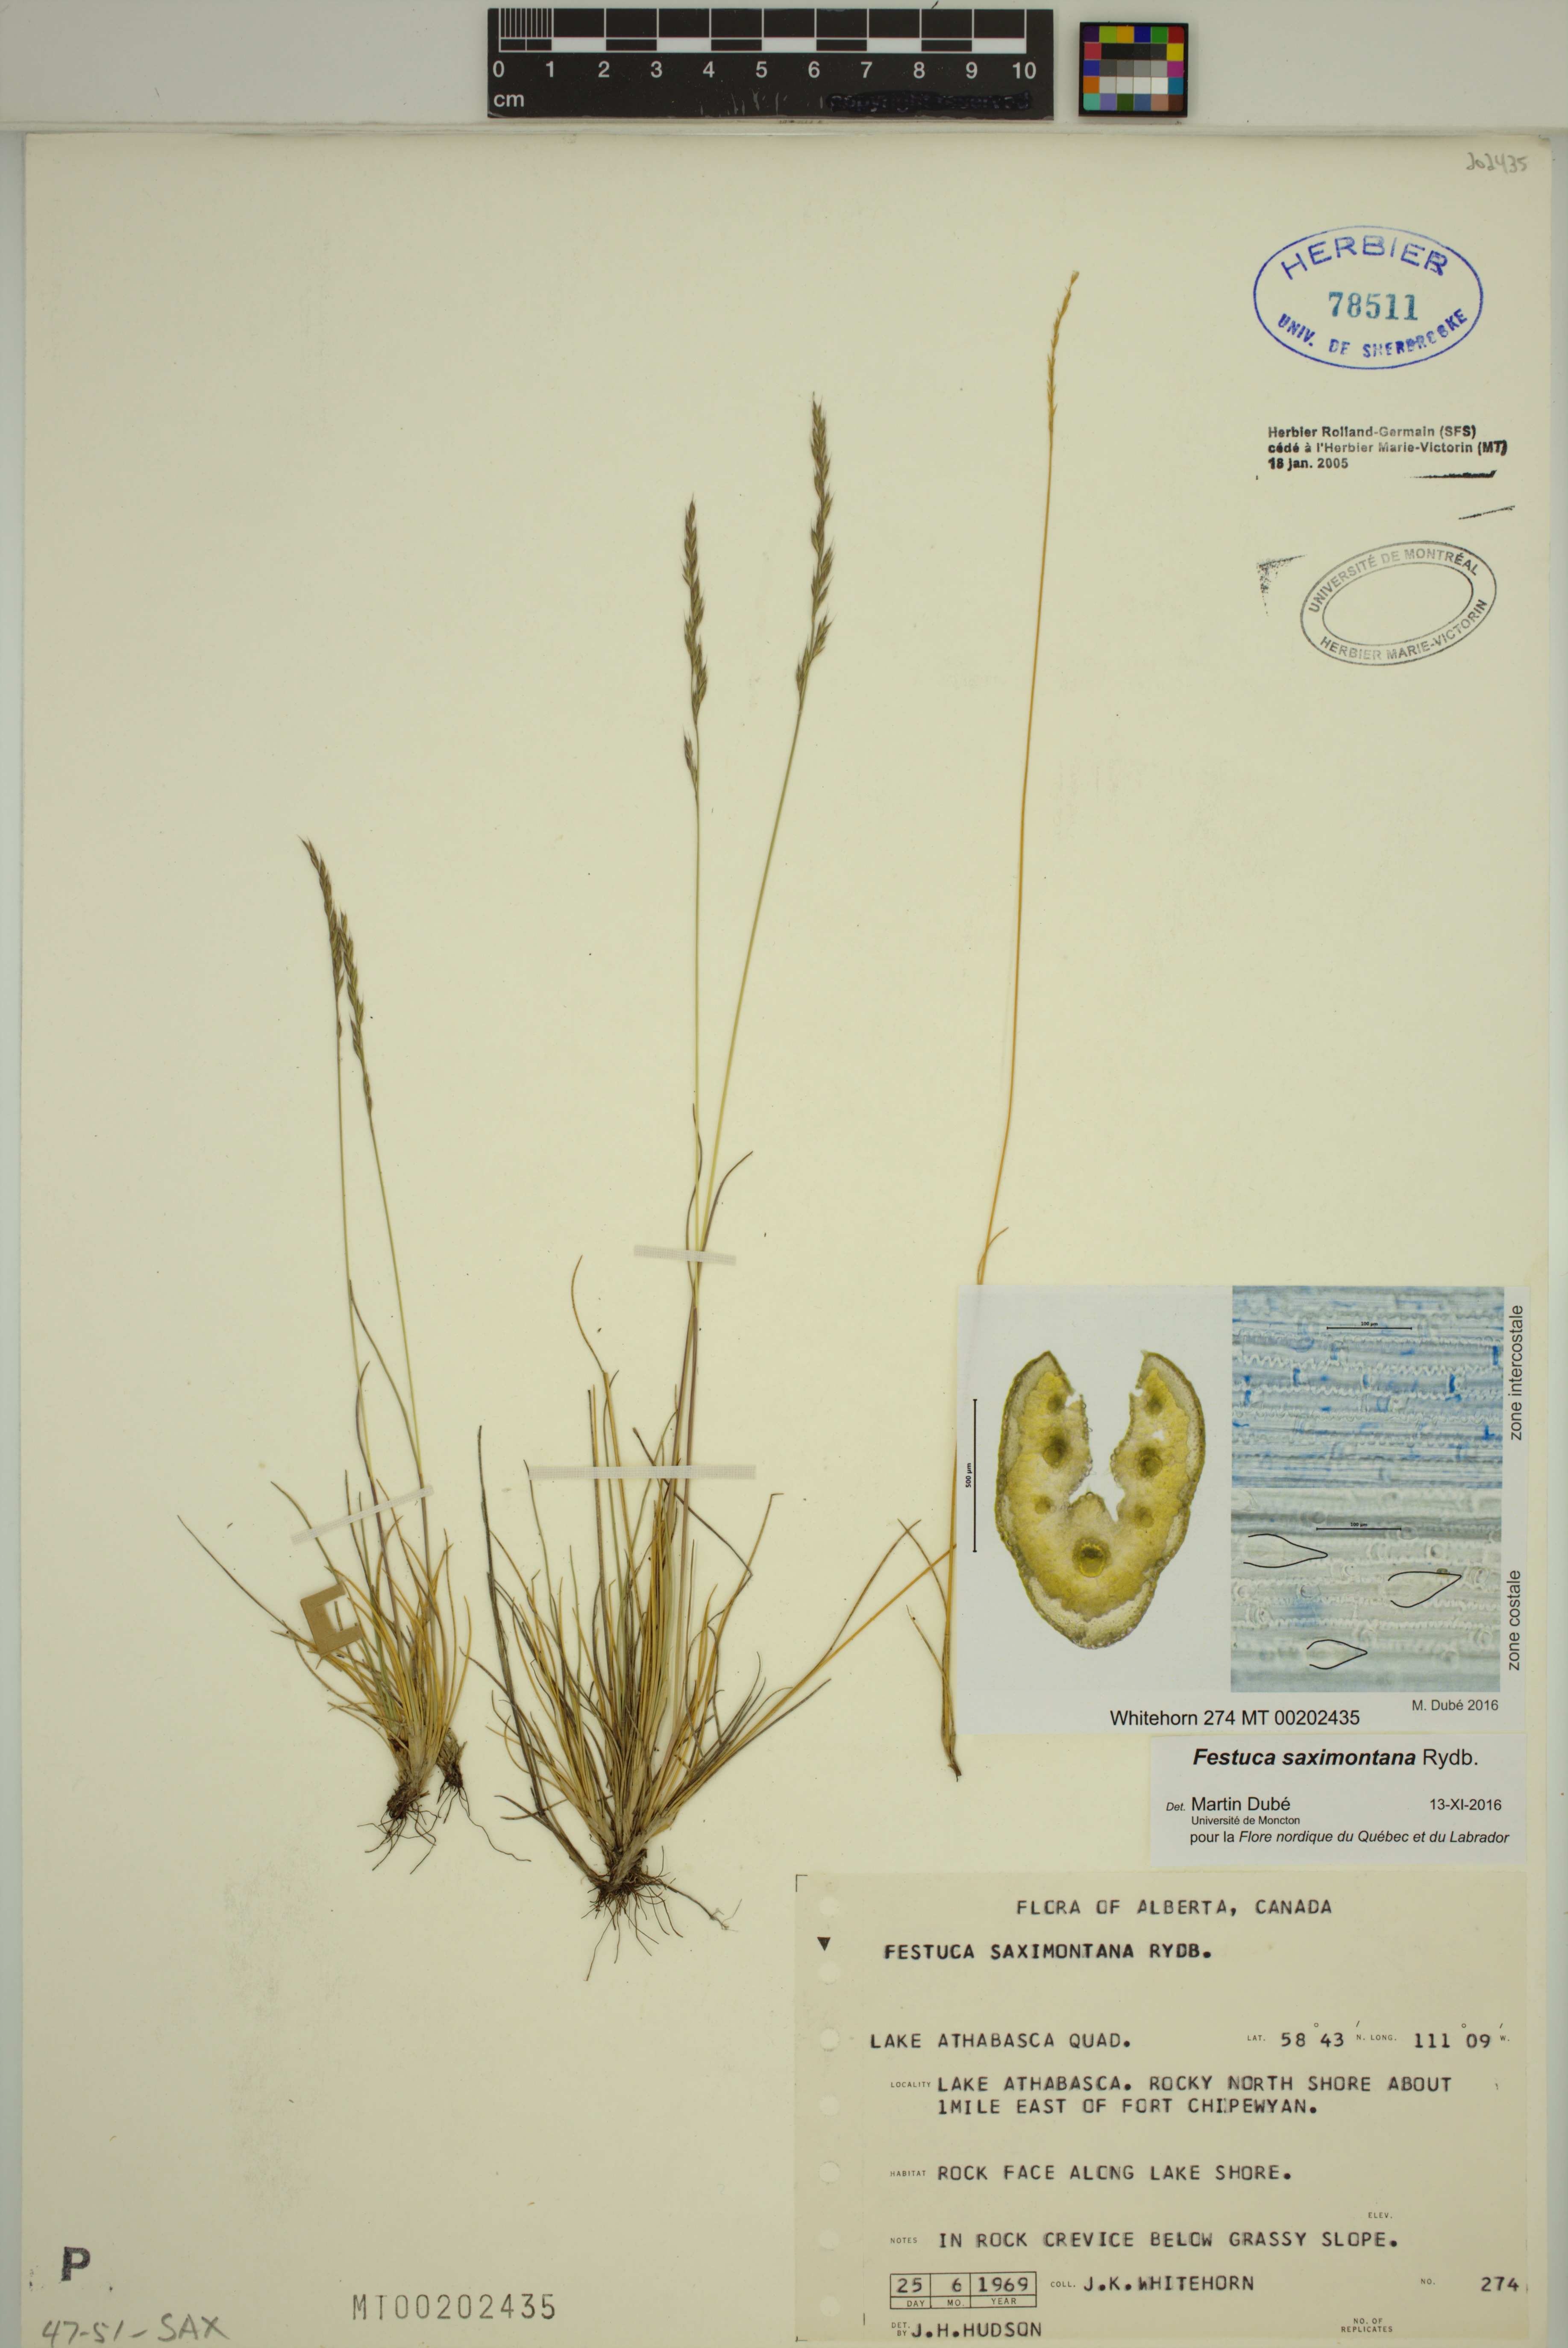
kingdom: Plantae
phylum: Tracheophyta
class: Liliopsida
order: Poales
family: Poaceae
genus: Festuca
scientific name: Festuca saximontana
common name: Mountain fescue
